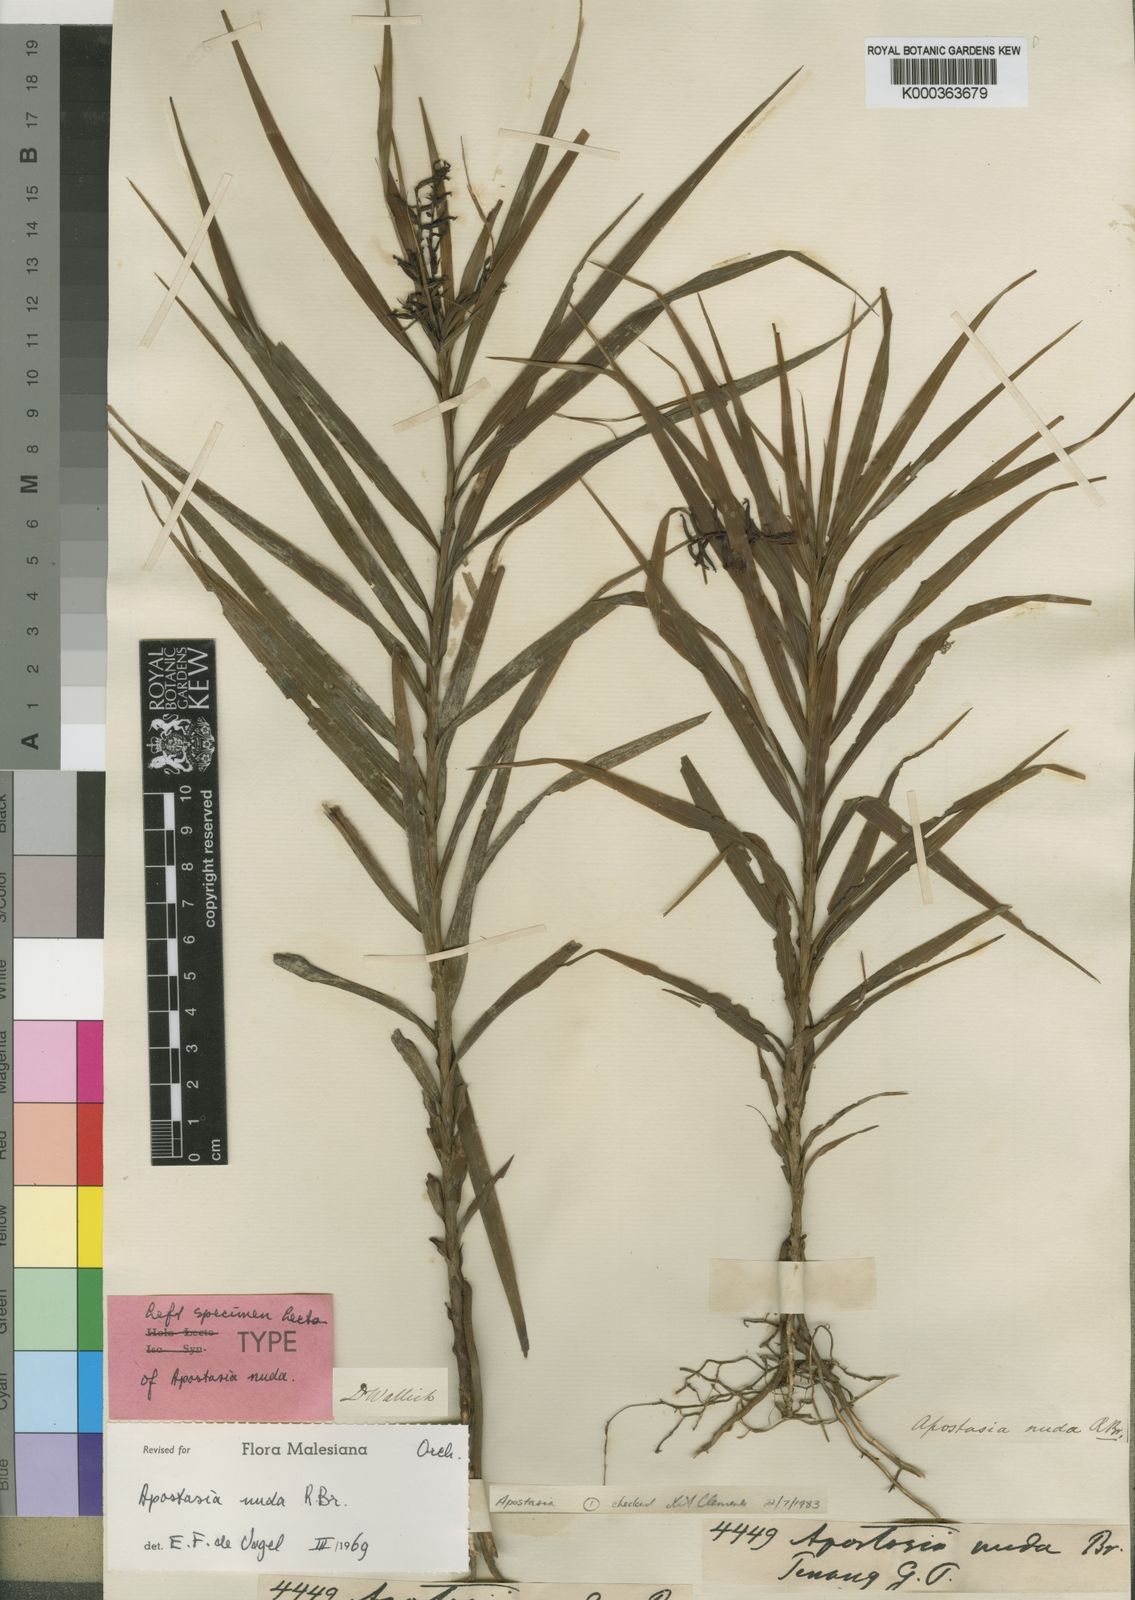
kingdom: Plantae
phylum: Tracheophyta
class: Liliopsida
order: Asparagales
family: Orchidaceae
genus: Apostasia
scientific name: Apostasia nuda
